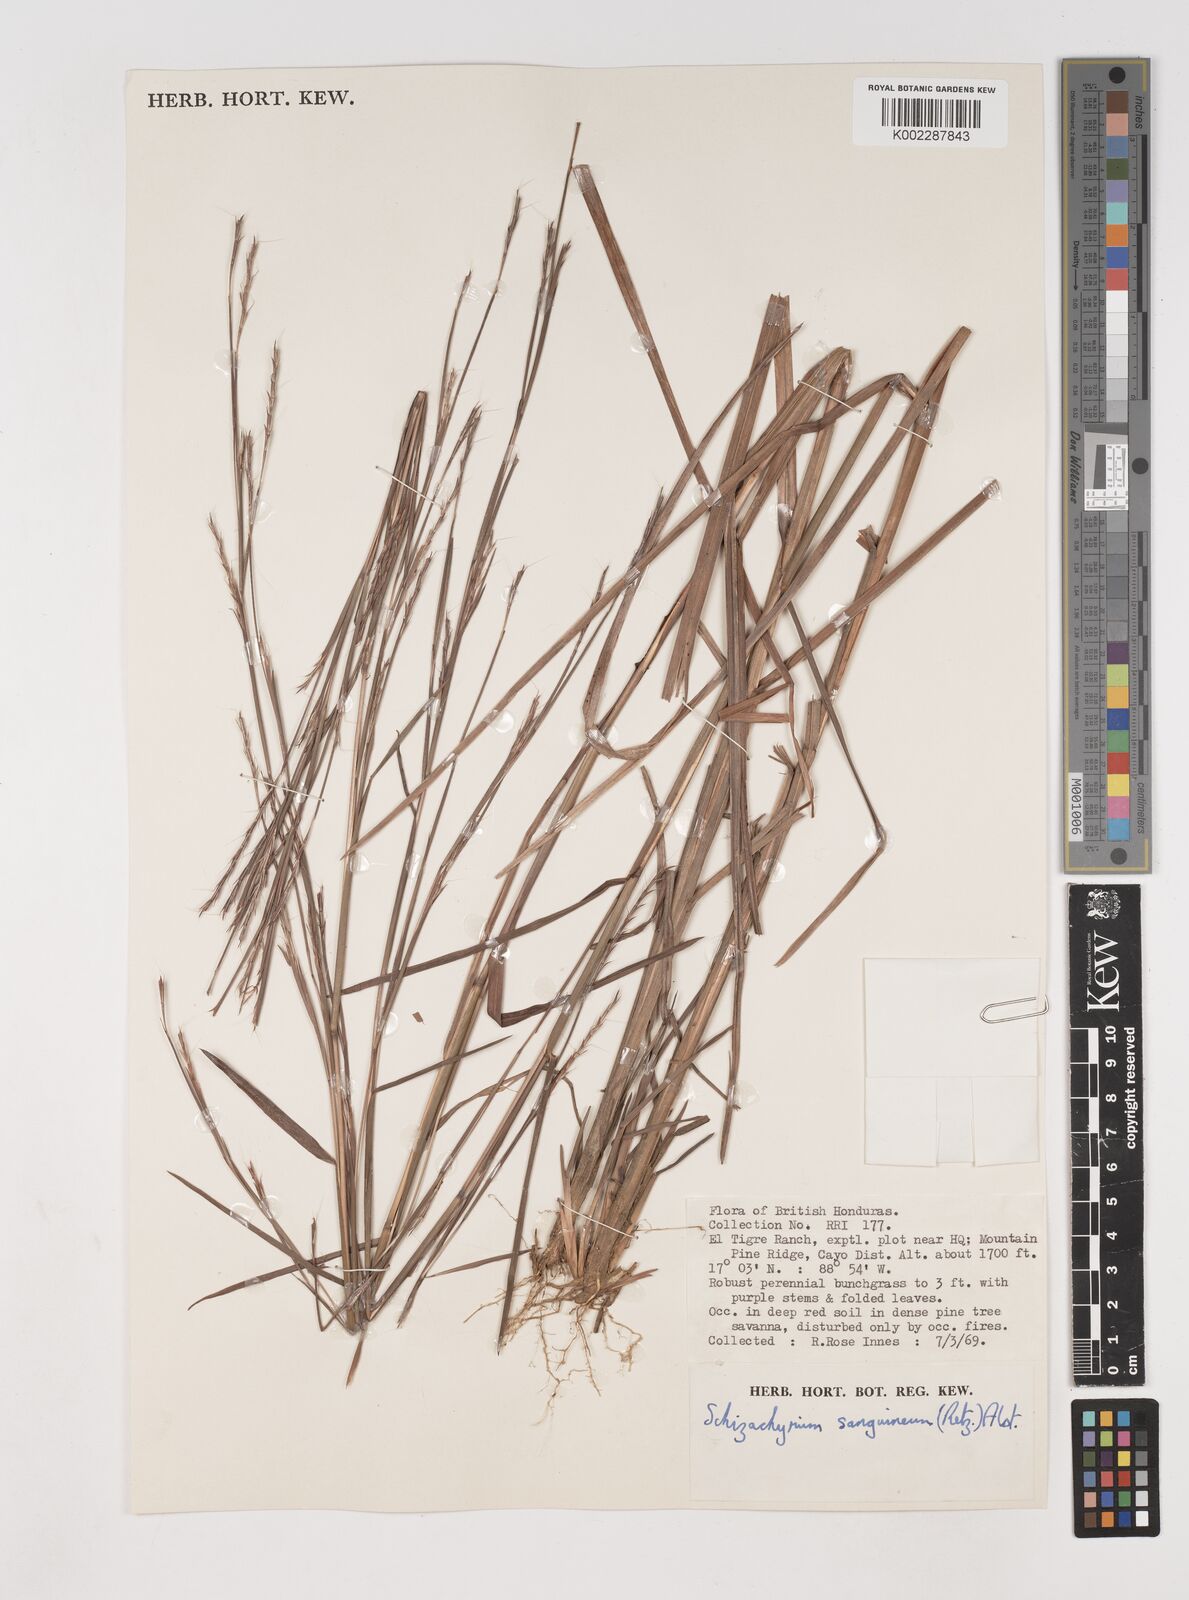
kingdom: Plantae
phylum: Tracheophyta
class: Liliopsida
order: Poales
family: Poaceae
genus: Schizachyrium
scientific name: Schizachyrium sanguineum
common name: Crimson bluestem
